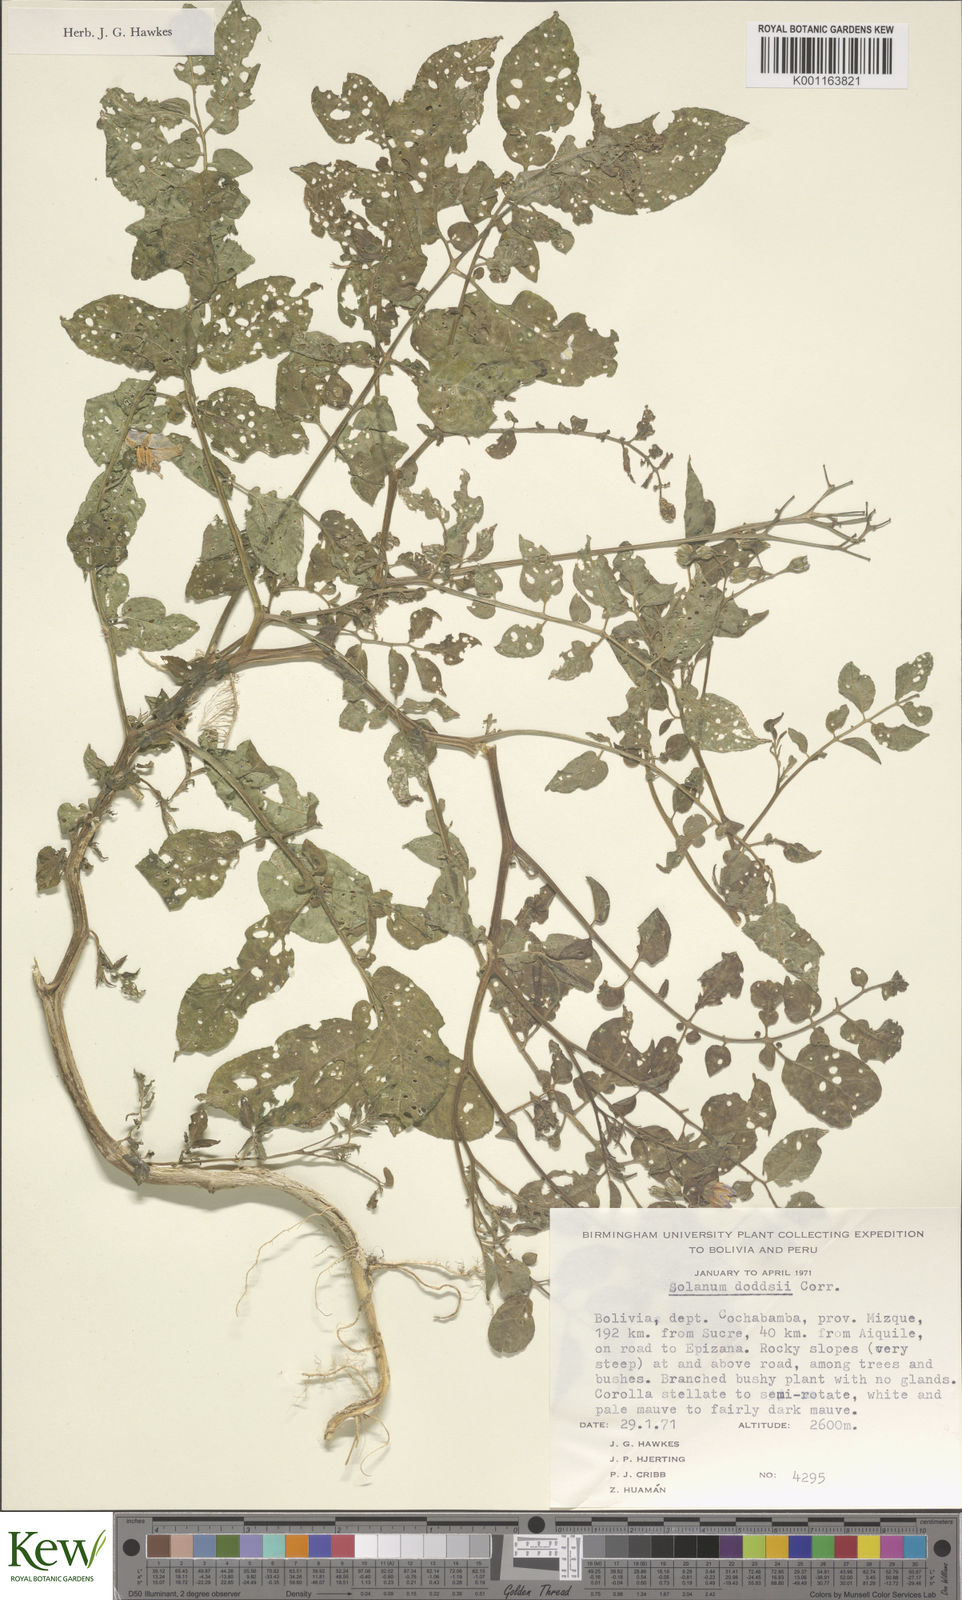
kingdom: Plantae
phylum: Tracheophyta
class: Magnoliopsida
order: Solanales
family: Solanaceae
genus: Solanum
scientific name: Solanum doddsii
